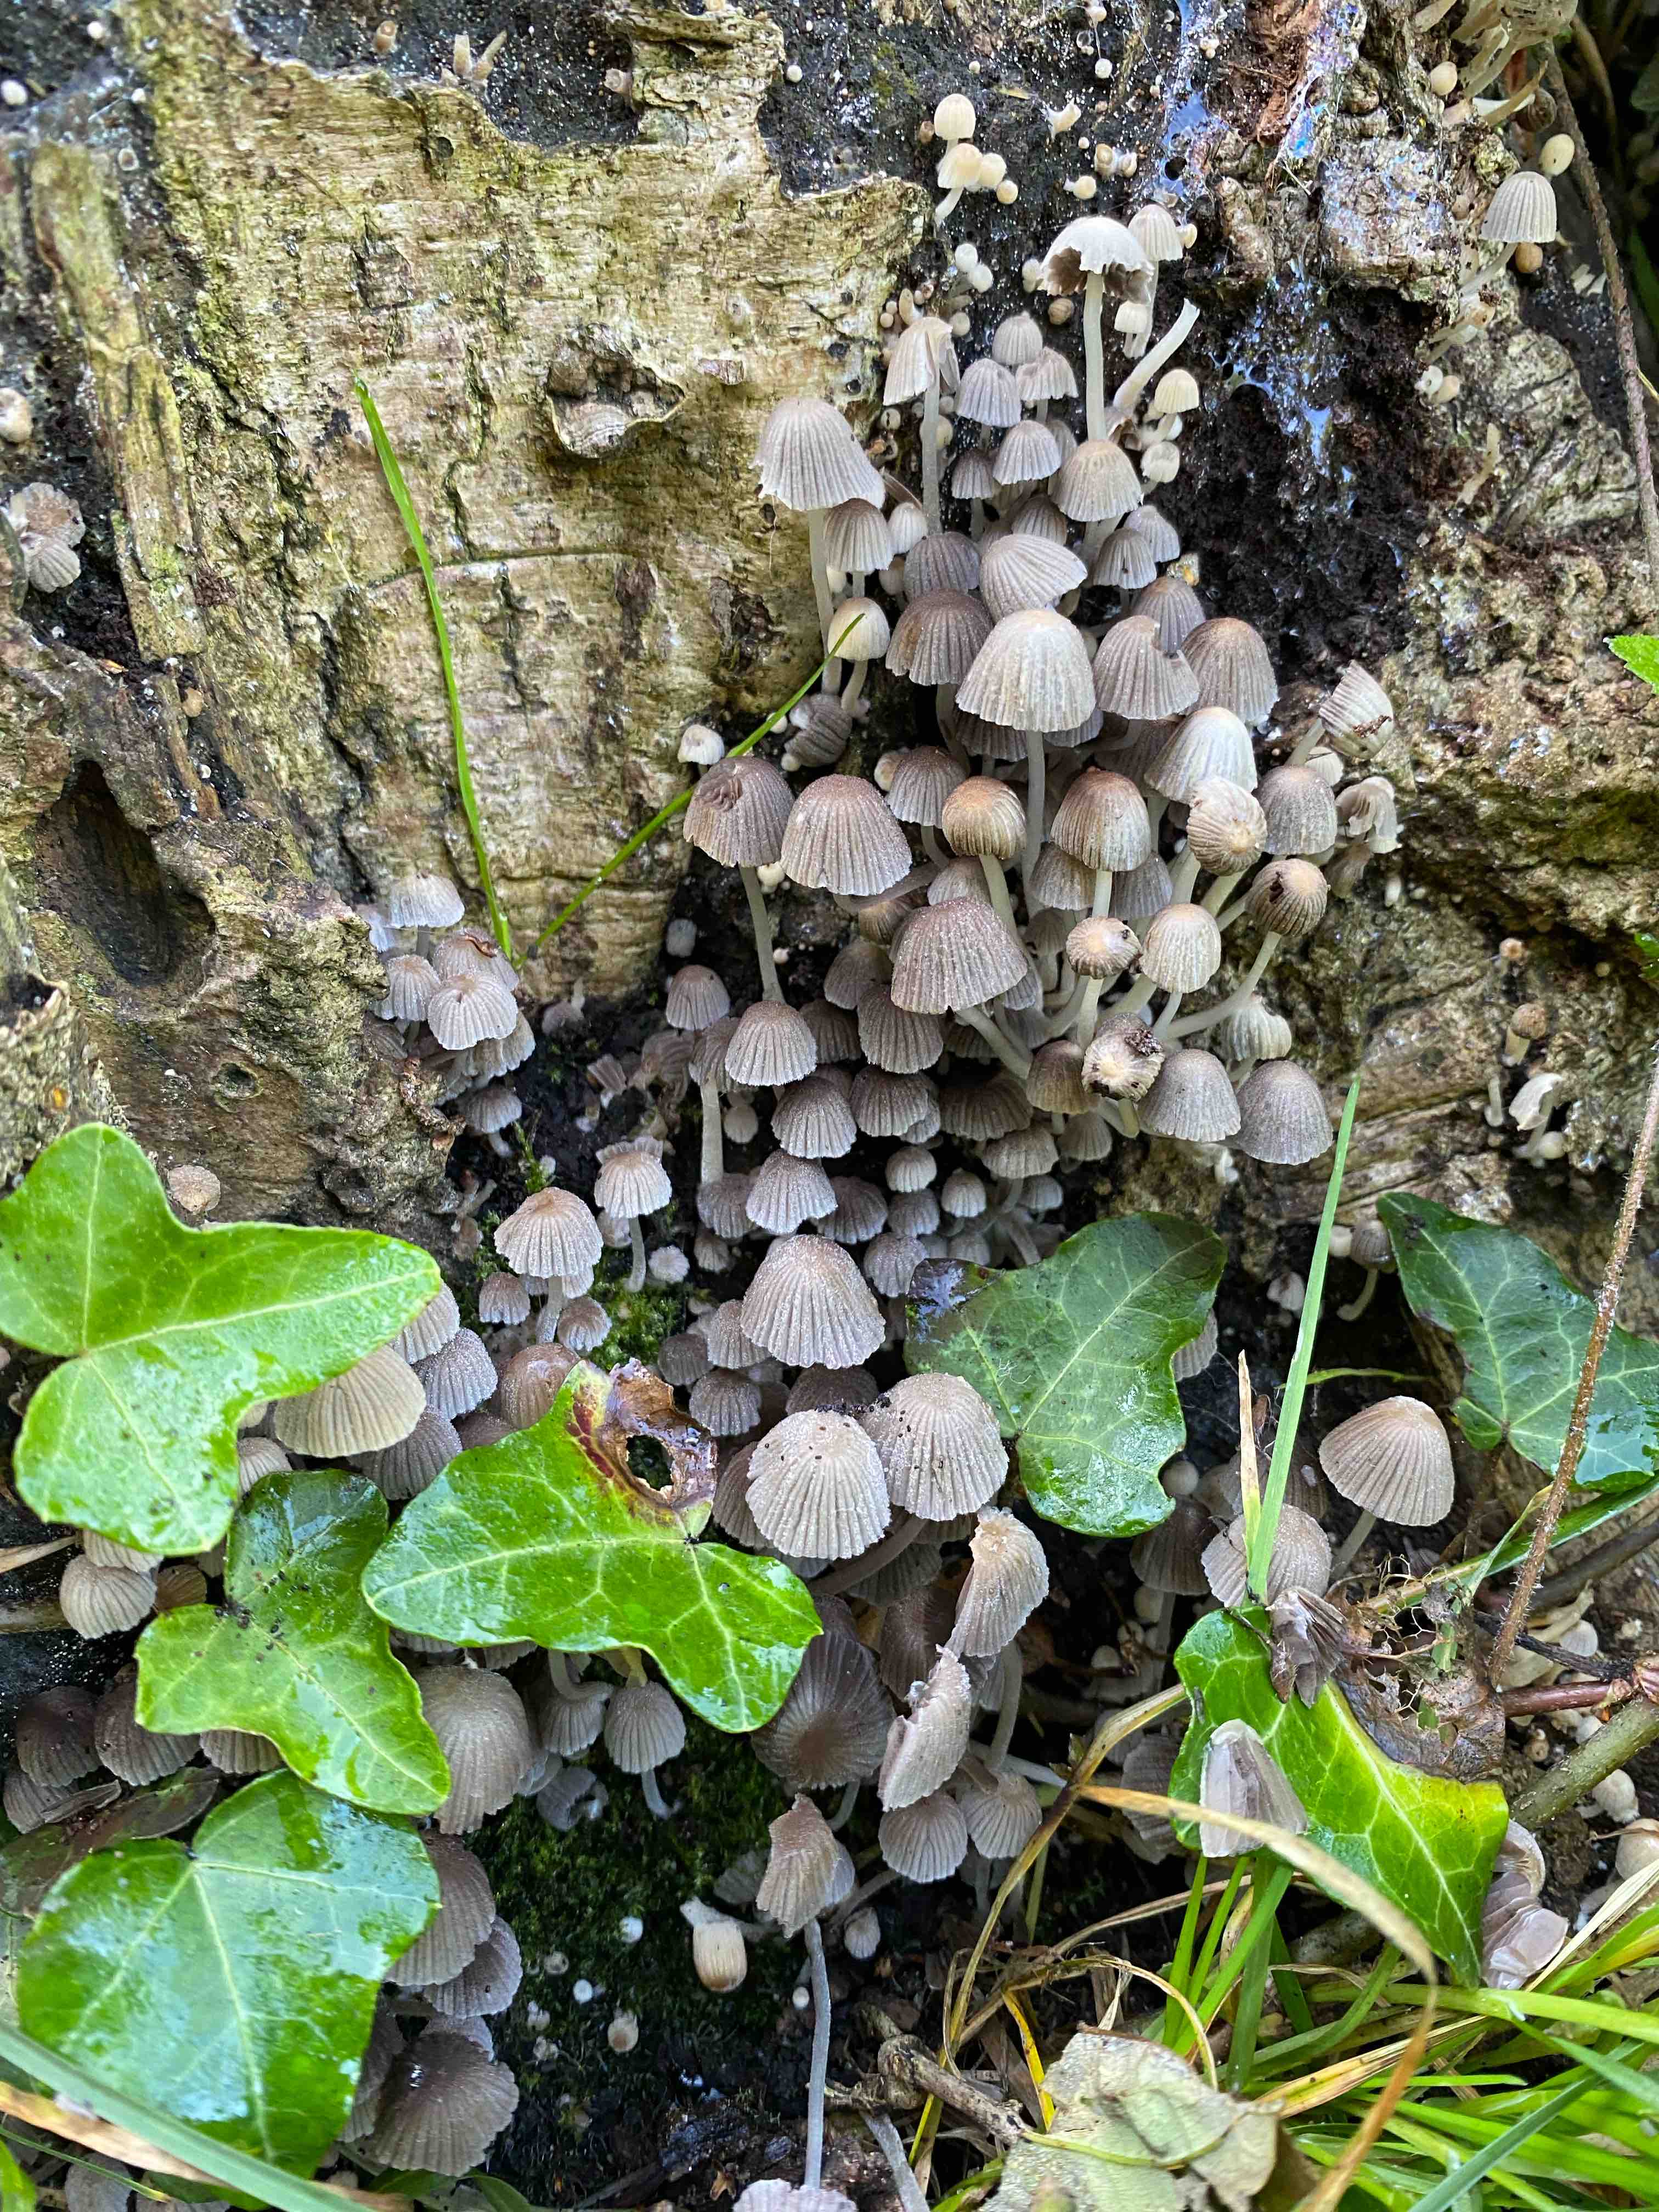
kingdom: Fungi
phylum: Basidiomycota
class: Agaricomycetes
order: Agaricales
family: Psathyrellaceae
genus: Coprinellus
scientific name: Coprinellus disseminatus
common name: bredsået blækhat
